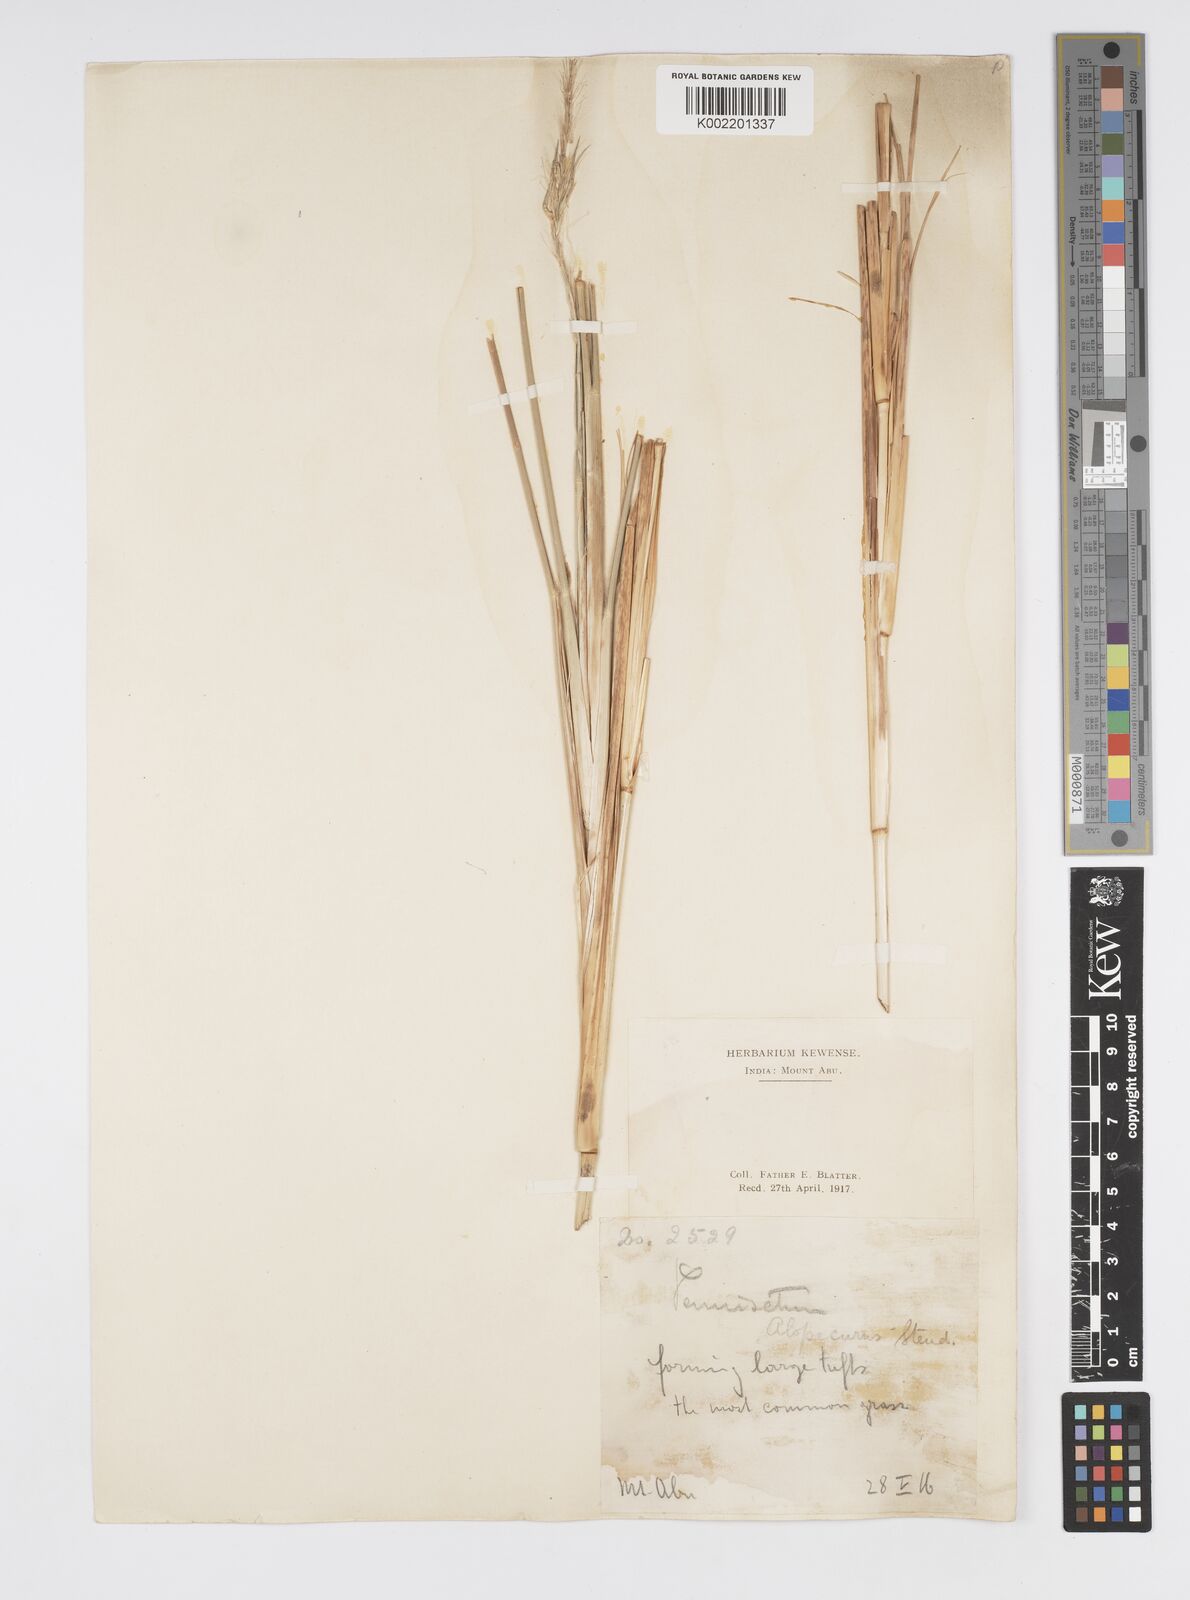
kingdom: Plantae
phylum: Tracheophyta
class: Liliopsida
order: Poales
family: Poaceae
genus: Cenchrus
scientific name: Cenchrus hohenackeri
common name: Moya grass
